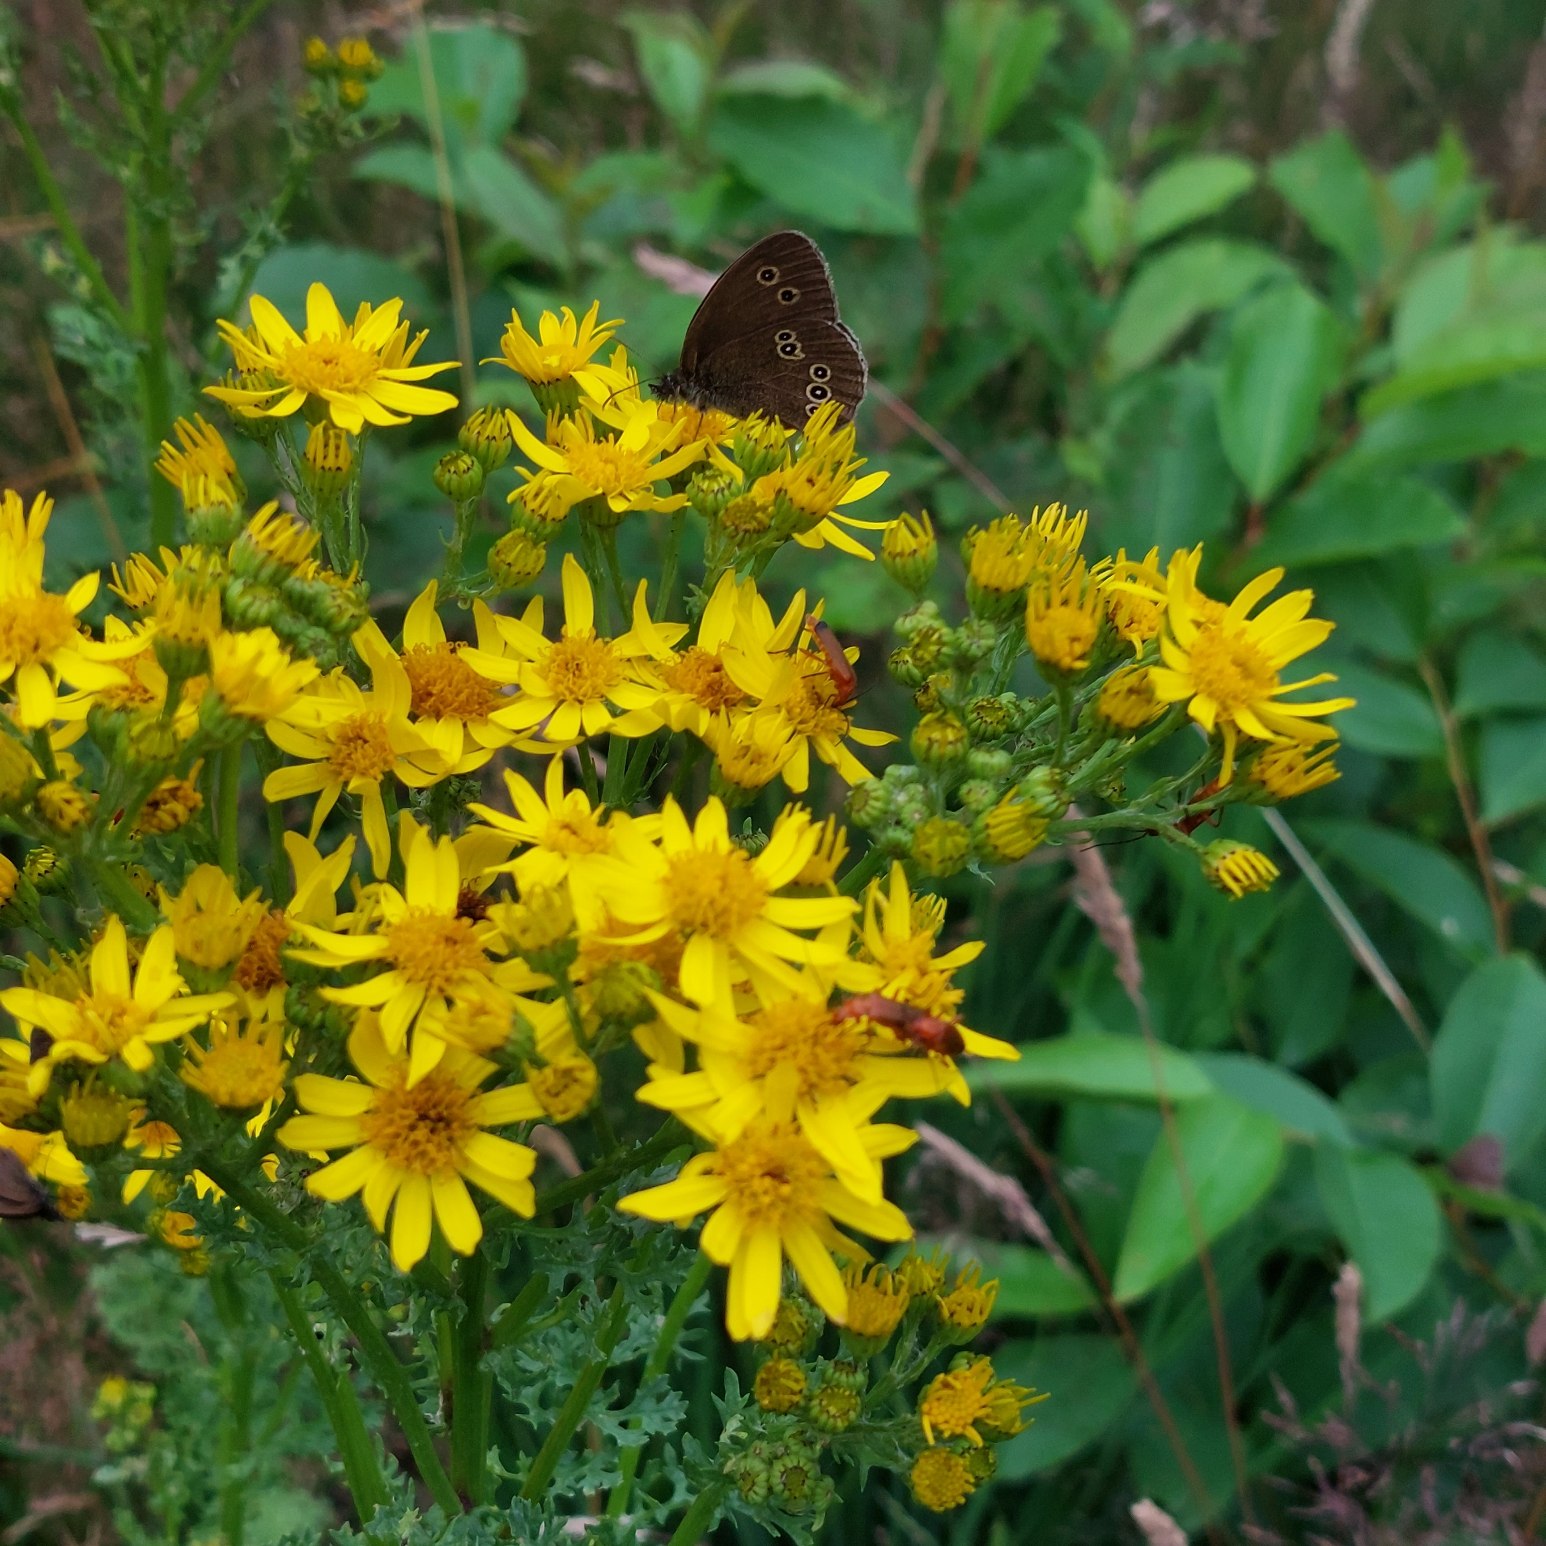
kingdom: Animalia
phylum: Arthropoda
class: Insecta
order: Lepidoptera
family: Nymphalidae
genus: Aphantopus
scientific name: Aphantopus hyperantus
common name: Engrandøje
